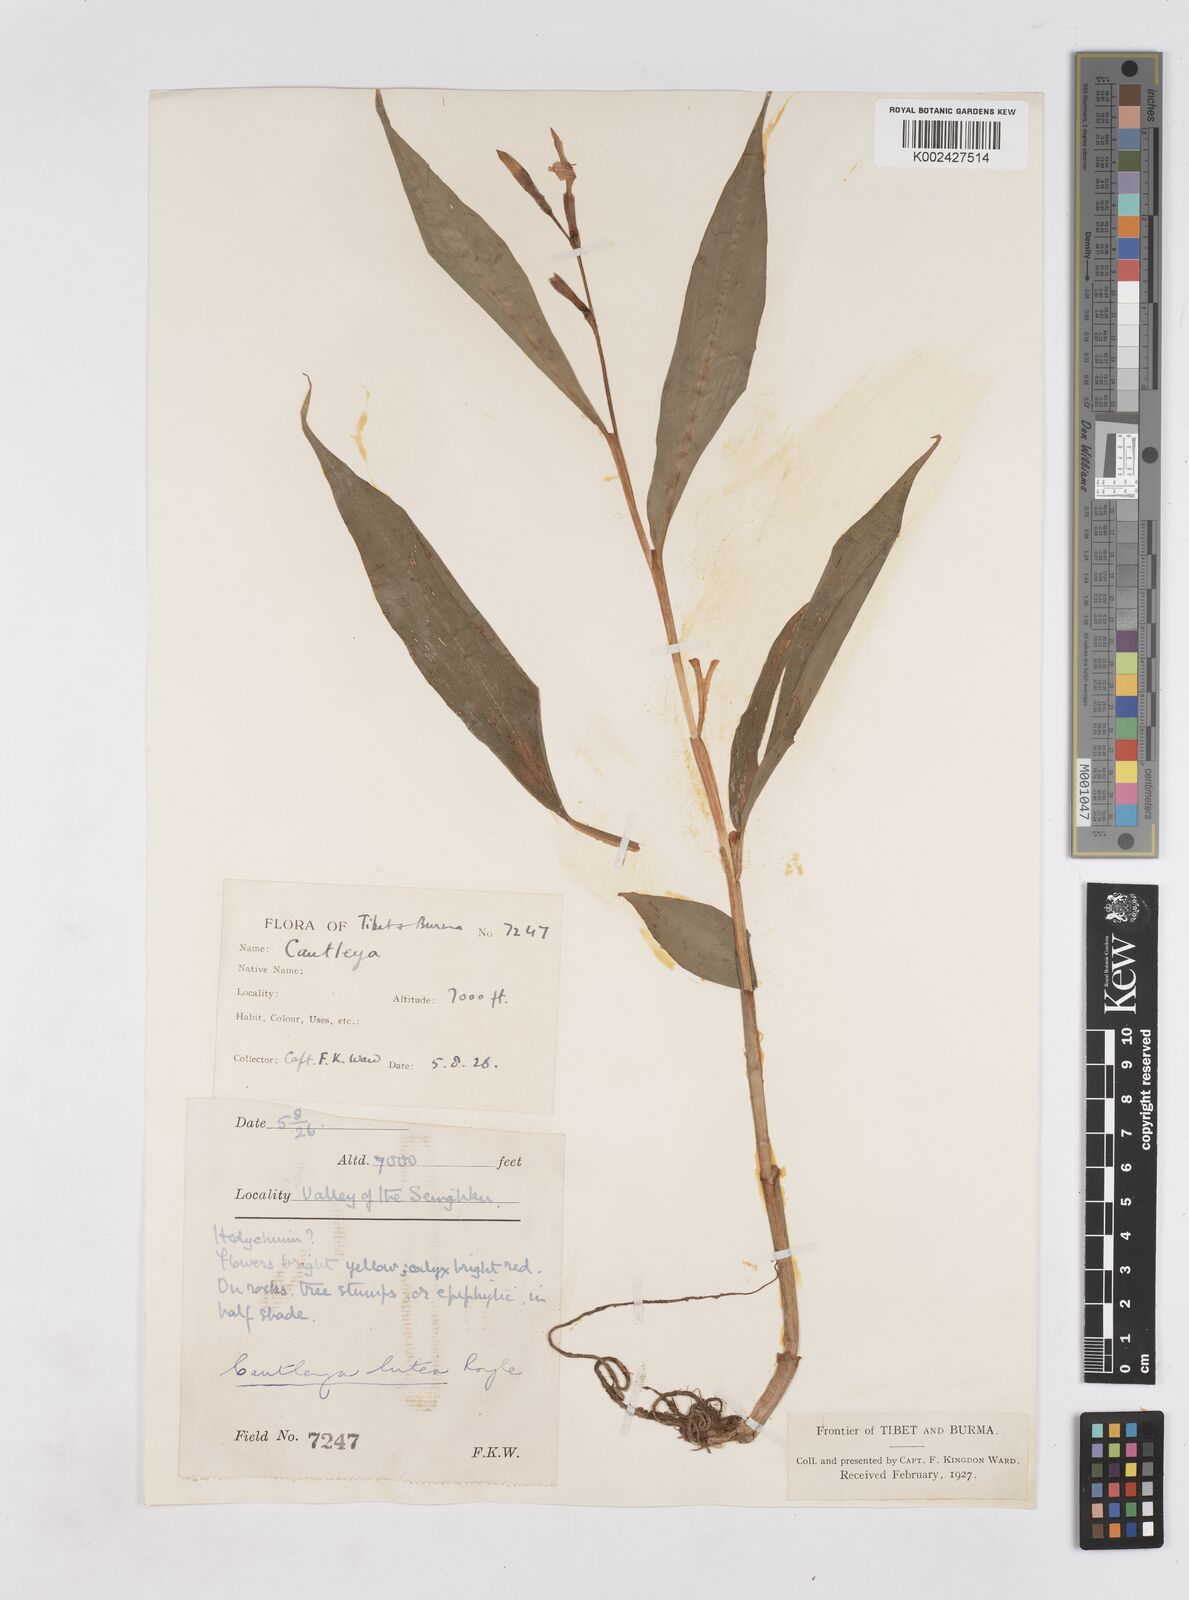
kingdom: Plantae
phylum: Tracheophyta
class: Liliopsida
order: Zingiberales
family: Zingiberaceae
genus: Cautleya
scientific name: Cautleya gracilis
